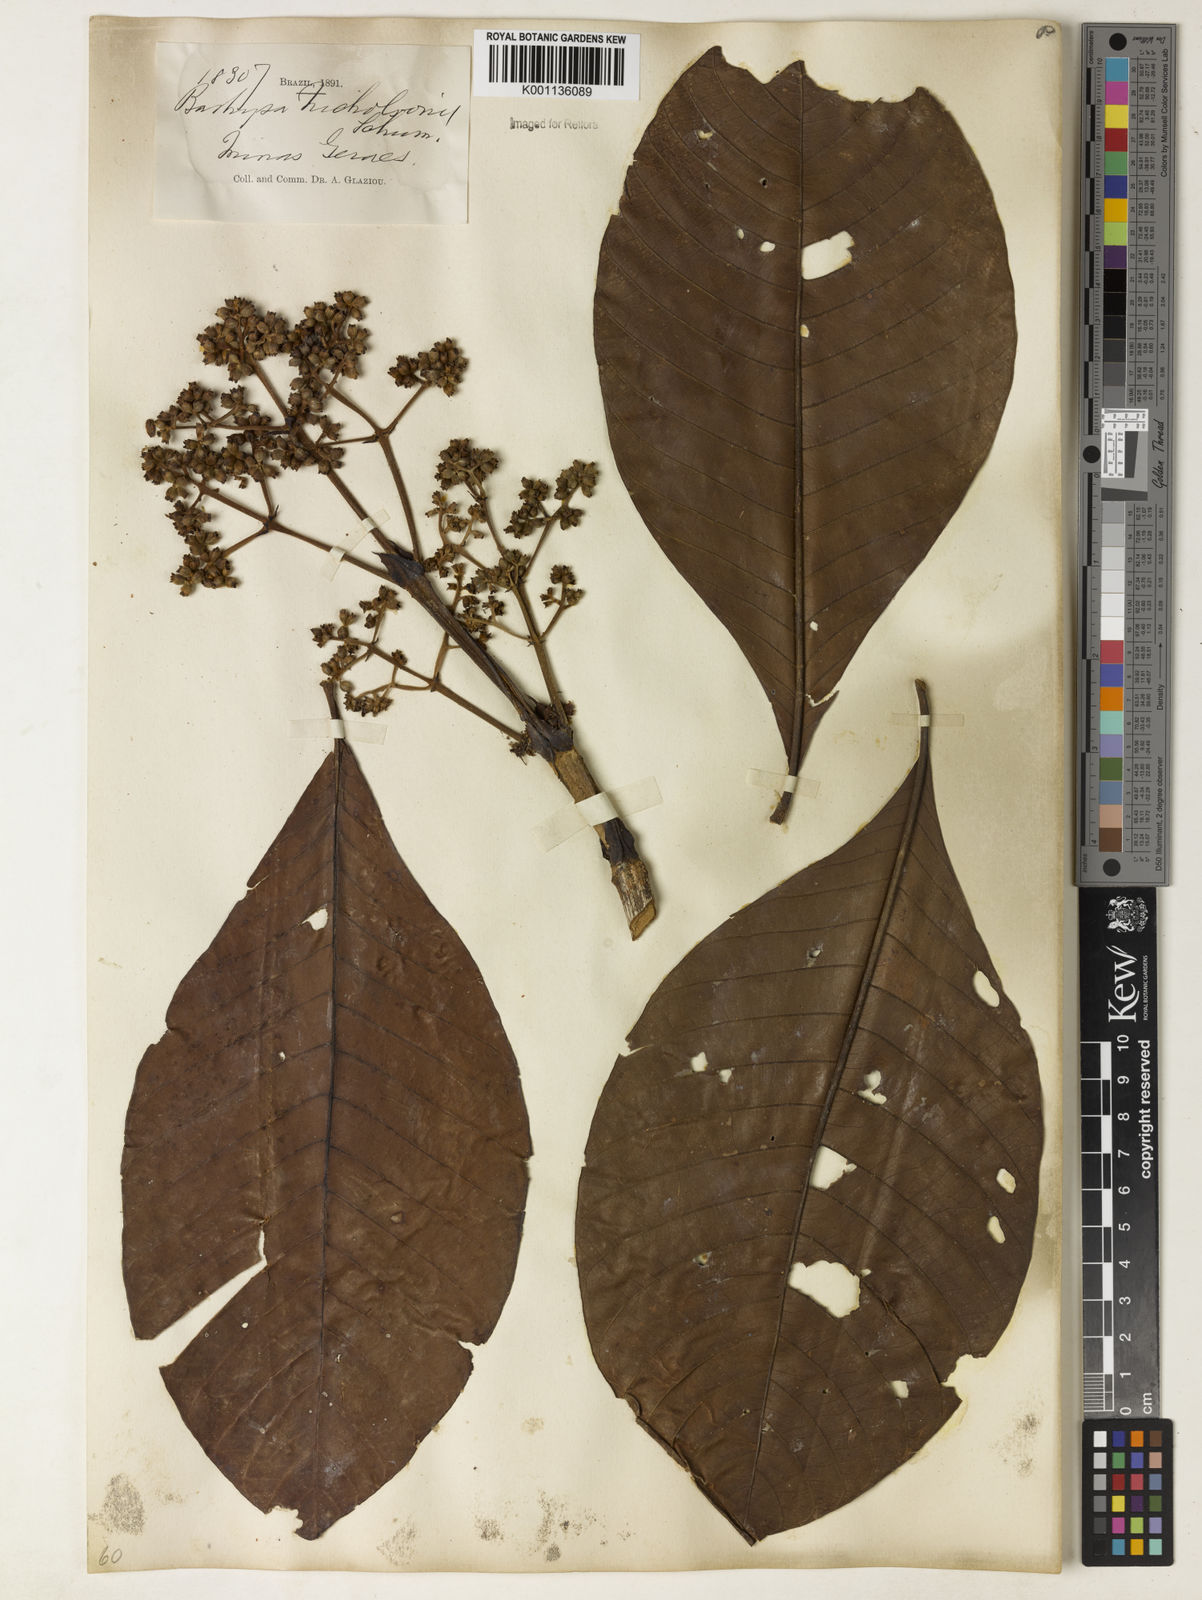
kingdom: Plantae
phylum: Tracheophyta
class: Magnoliopsida
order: Gentianales
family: Rubiaceae
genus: Bathysa
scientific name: Bathysa nicholsonii
